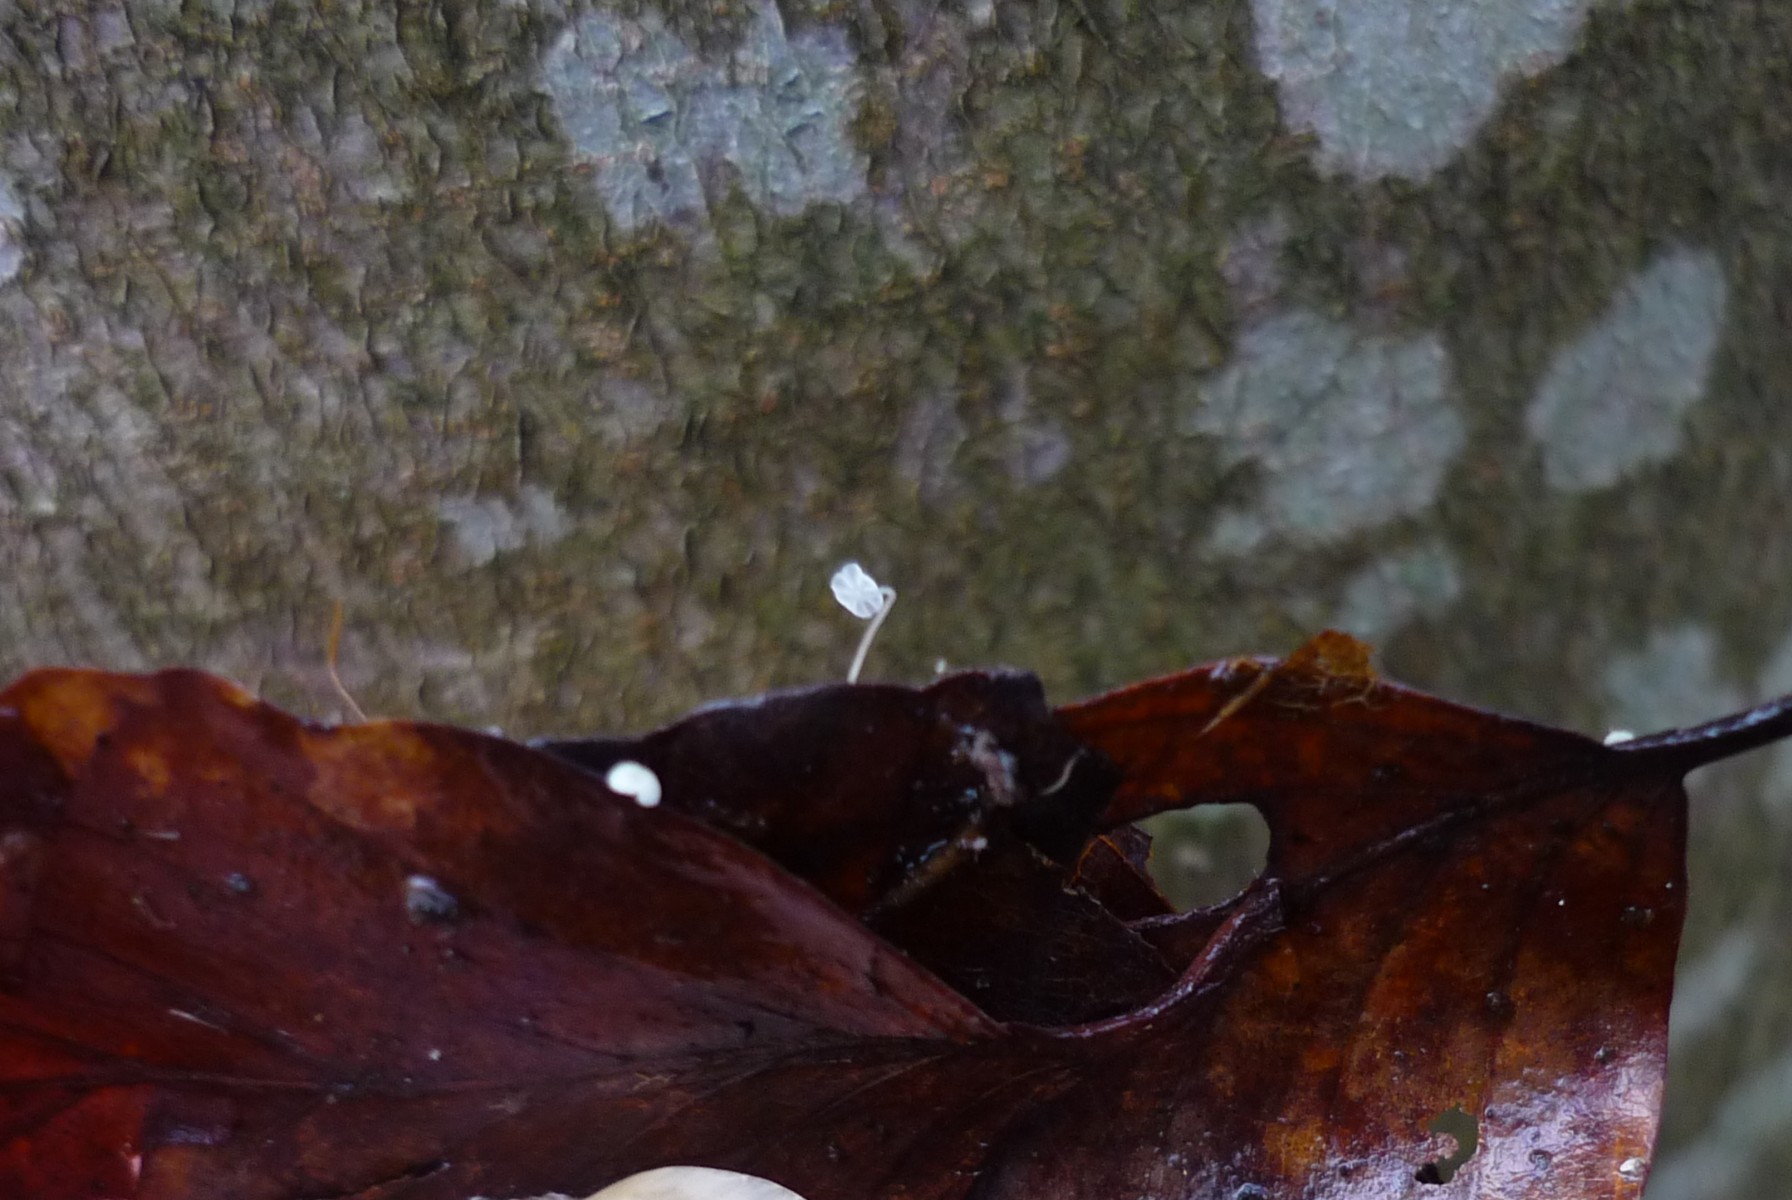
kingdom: Fungi
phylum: Basidiomycota
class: Agaricomycetes
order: Agaricales
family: Physalacriaceae
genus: Rhizomarasmius
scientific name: Rhizomarasmius setosus
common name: bøgeblads-bruskhat
